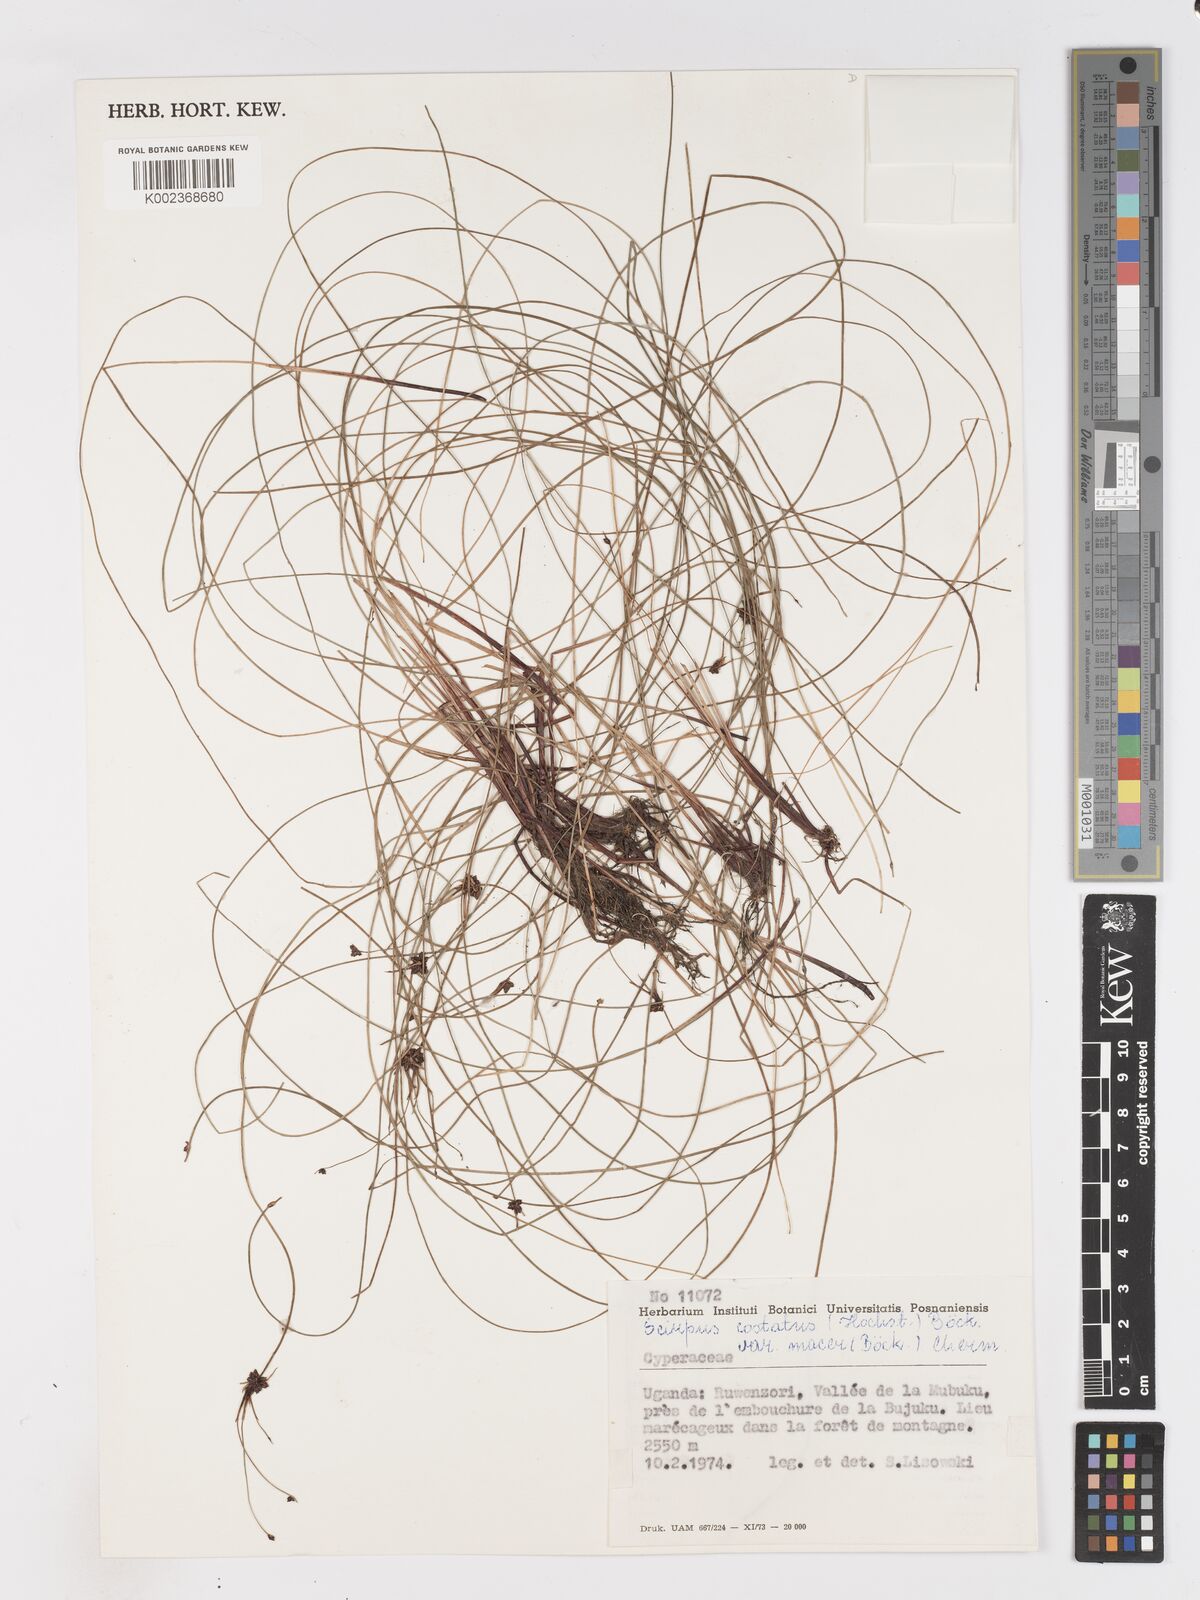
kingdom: Plantae
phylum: Tracheophyta
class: Liliopsida
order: Poales
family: Cyperaceae
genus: Isolepis
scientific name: Isolepis costata
